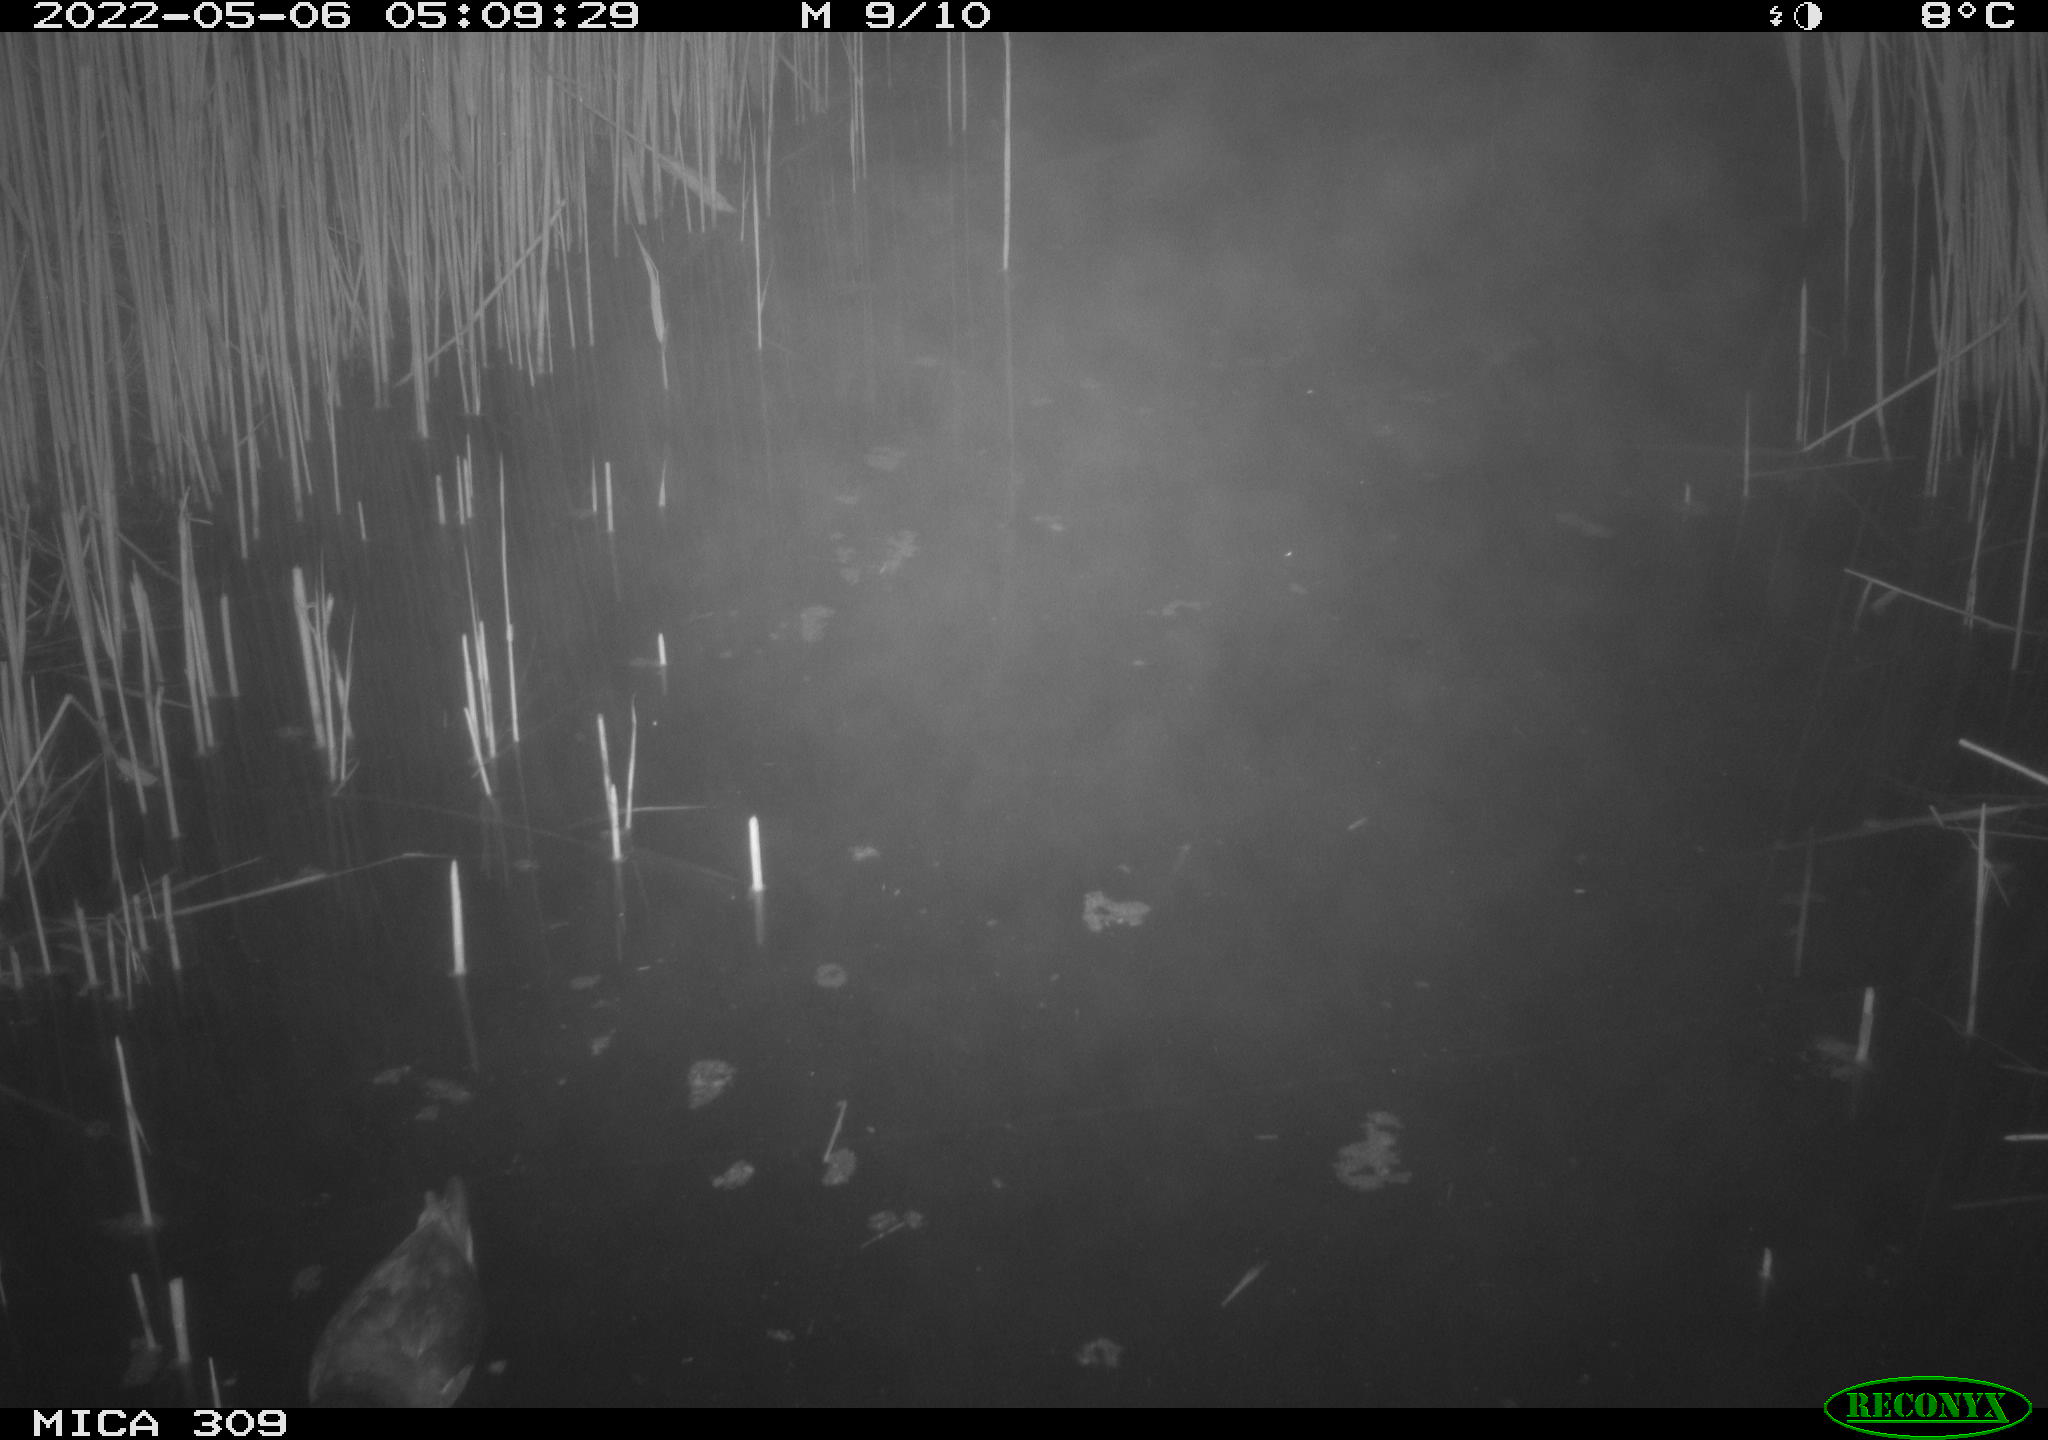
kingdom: Animalia
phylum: Chordata
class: Aves
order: Gruiformes
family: Rallidae
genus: Gallinula
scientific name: Gallinula chloropus
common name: Common moorhen
